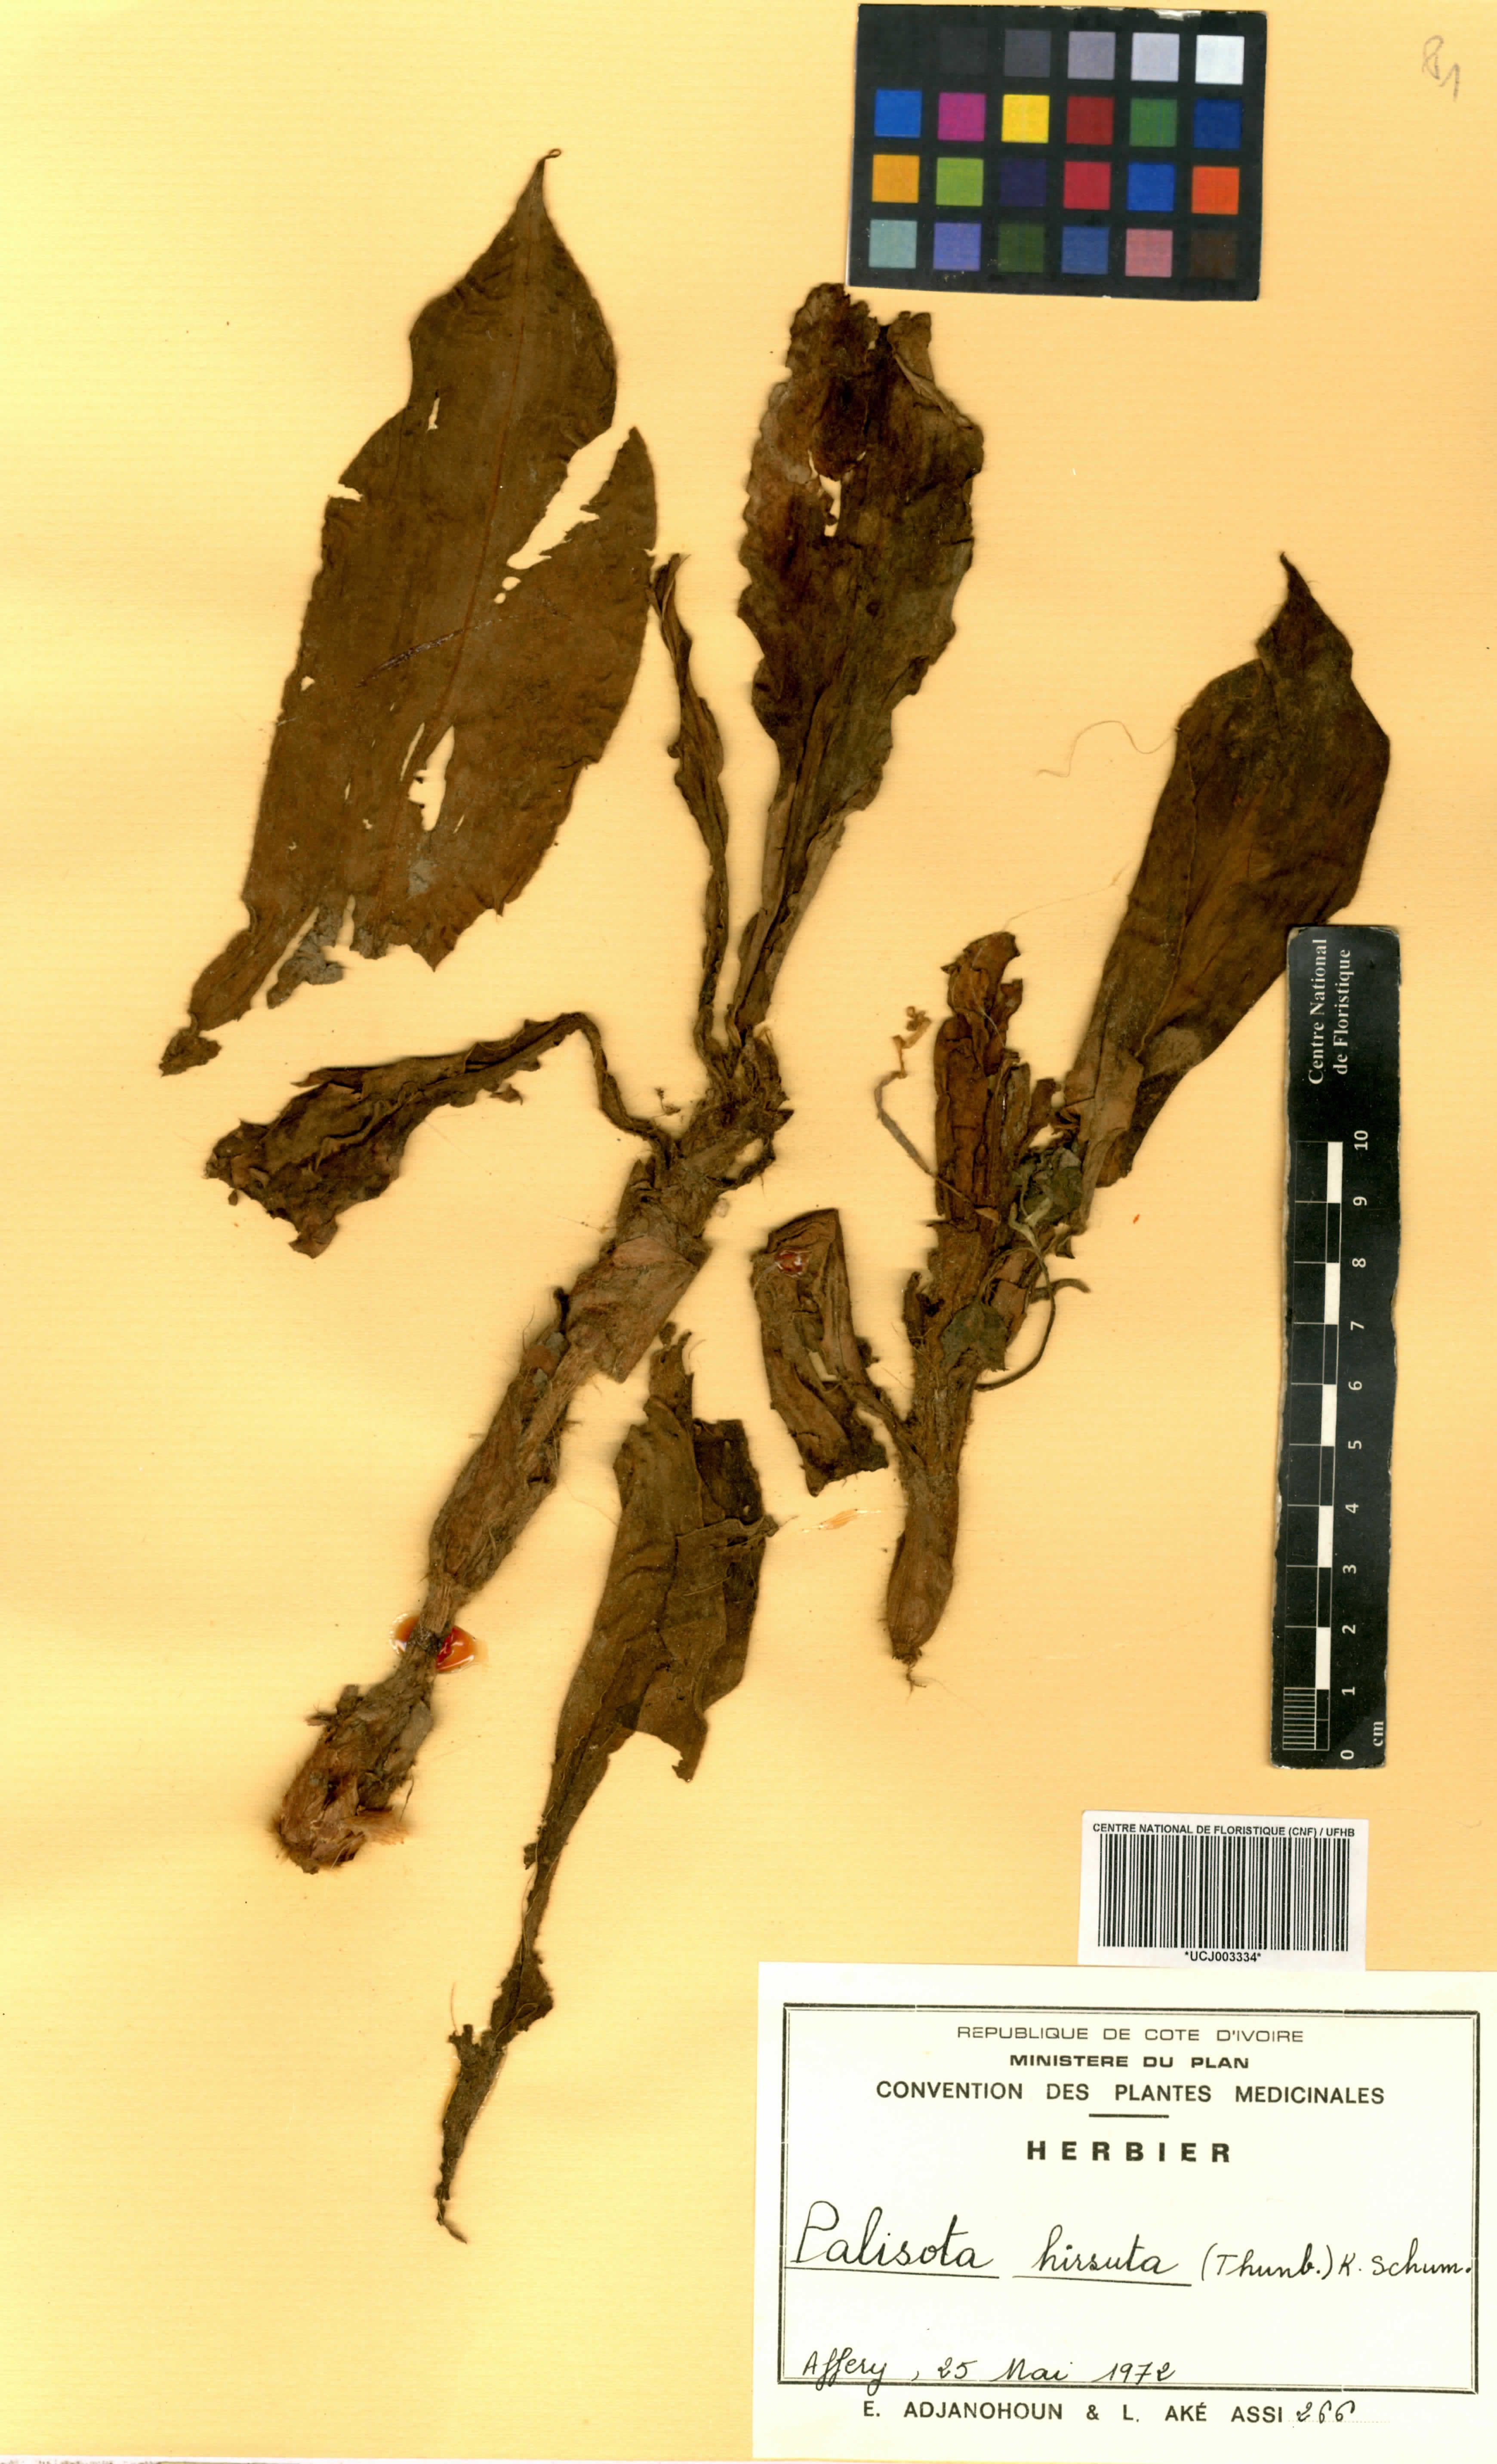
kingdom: Plantae
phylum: Tracheophyta
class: Liliopsida
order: Commelinales
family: Commelinaceae
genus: Palisota
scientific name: Palisota hirsuta
